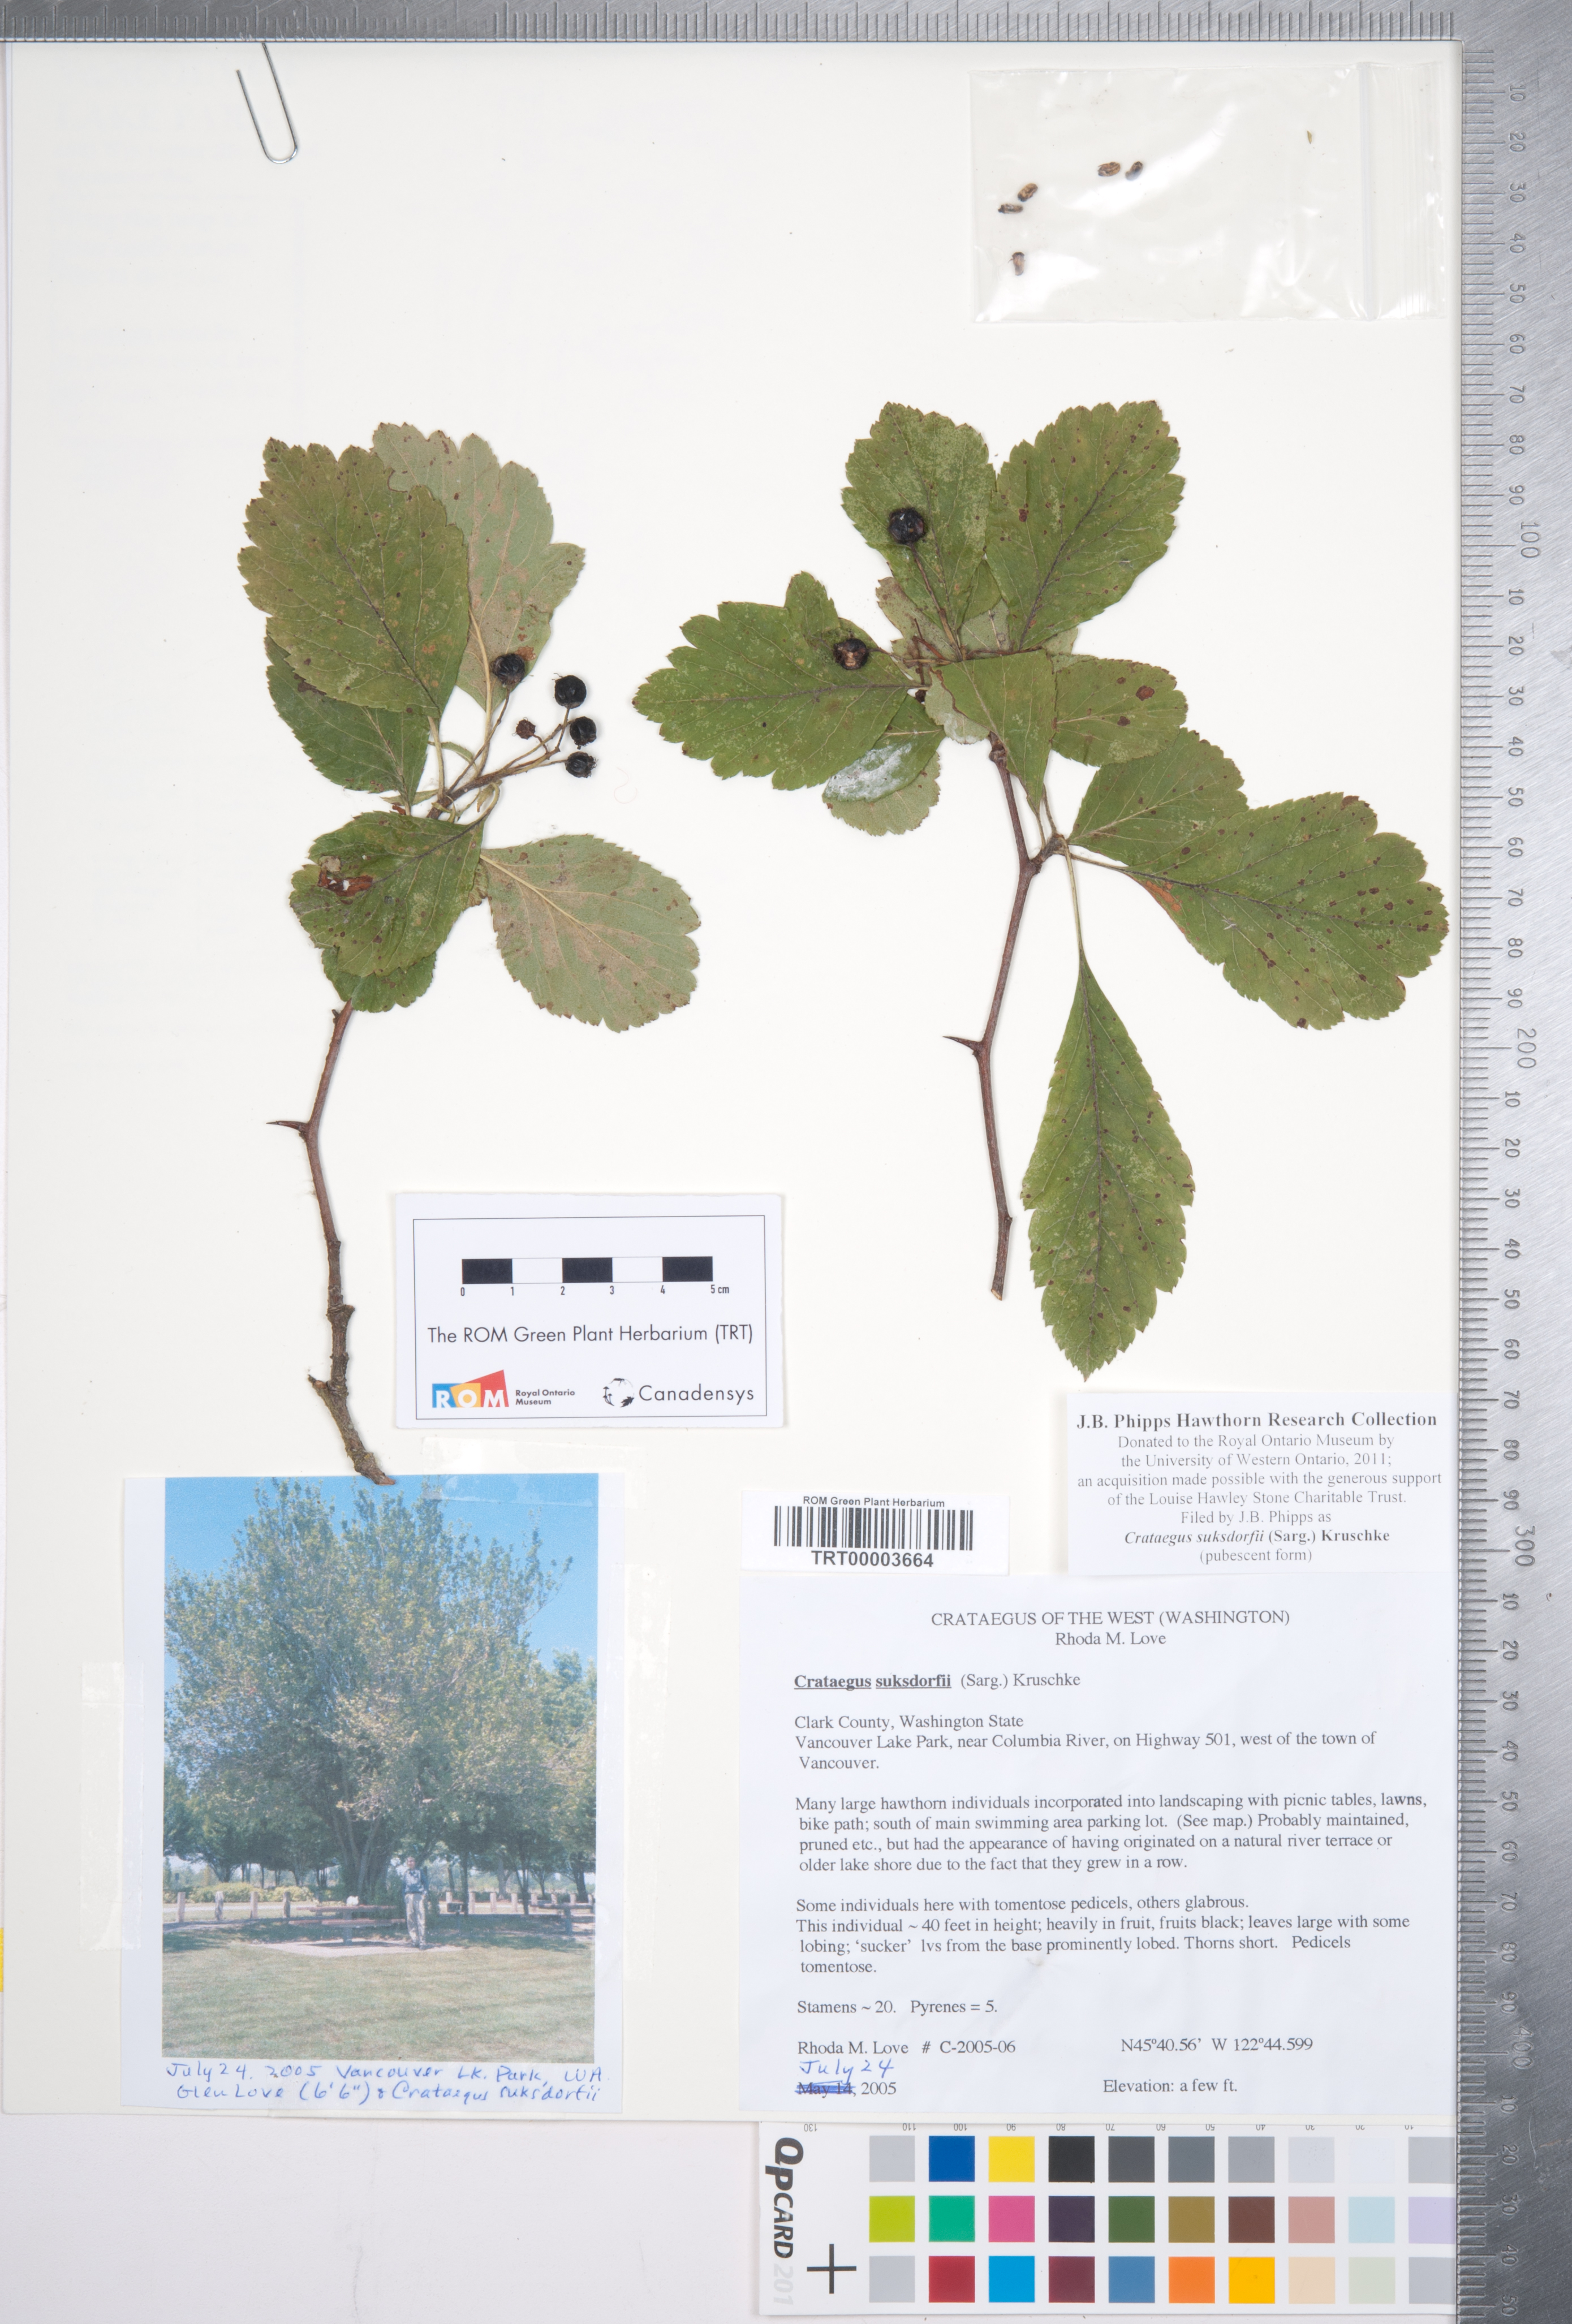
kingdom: Plantae
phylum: Tracheophyta
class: Magnoliopsida
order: Rosales
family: Rosaceae
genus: Crataegus
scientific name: Crataegus gaylussacia
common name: Huckleberry hawthorn
